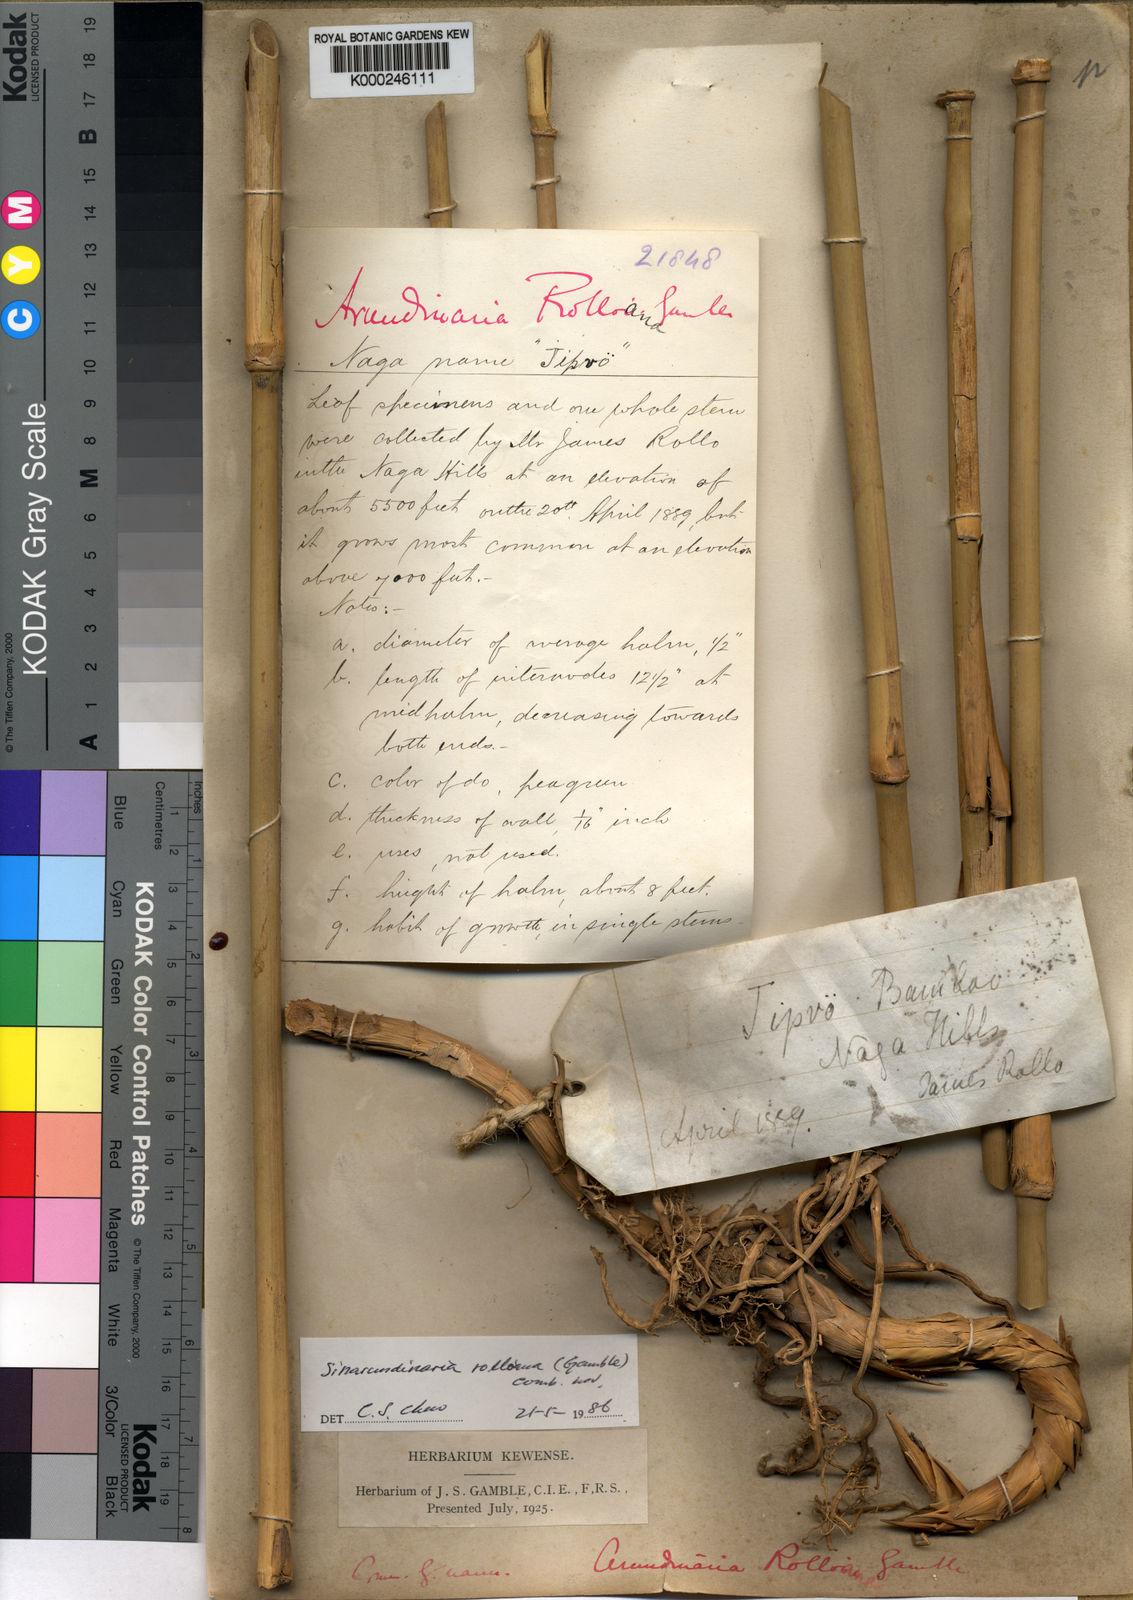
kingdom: Plantae
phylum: Tracheophyta
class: Liliopsida
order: Poales
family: Poaceae
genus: Yushania
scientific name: Yushania rolloana
